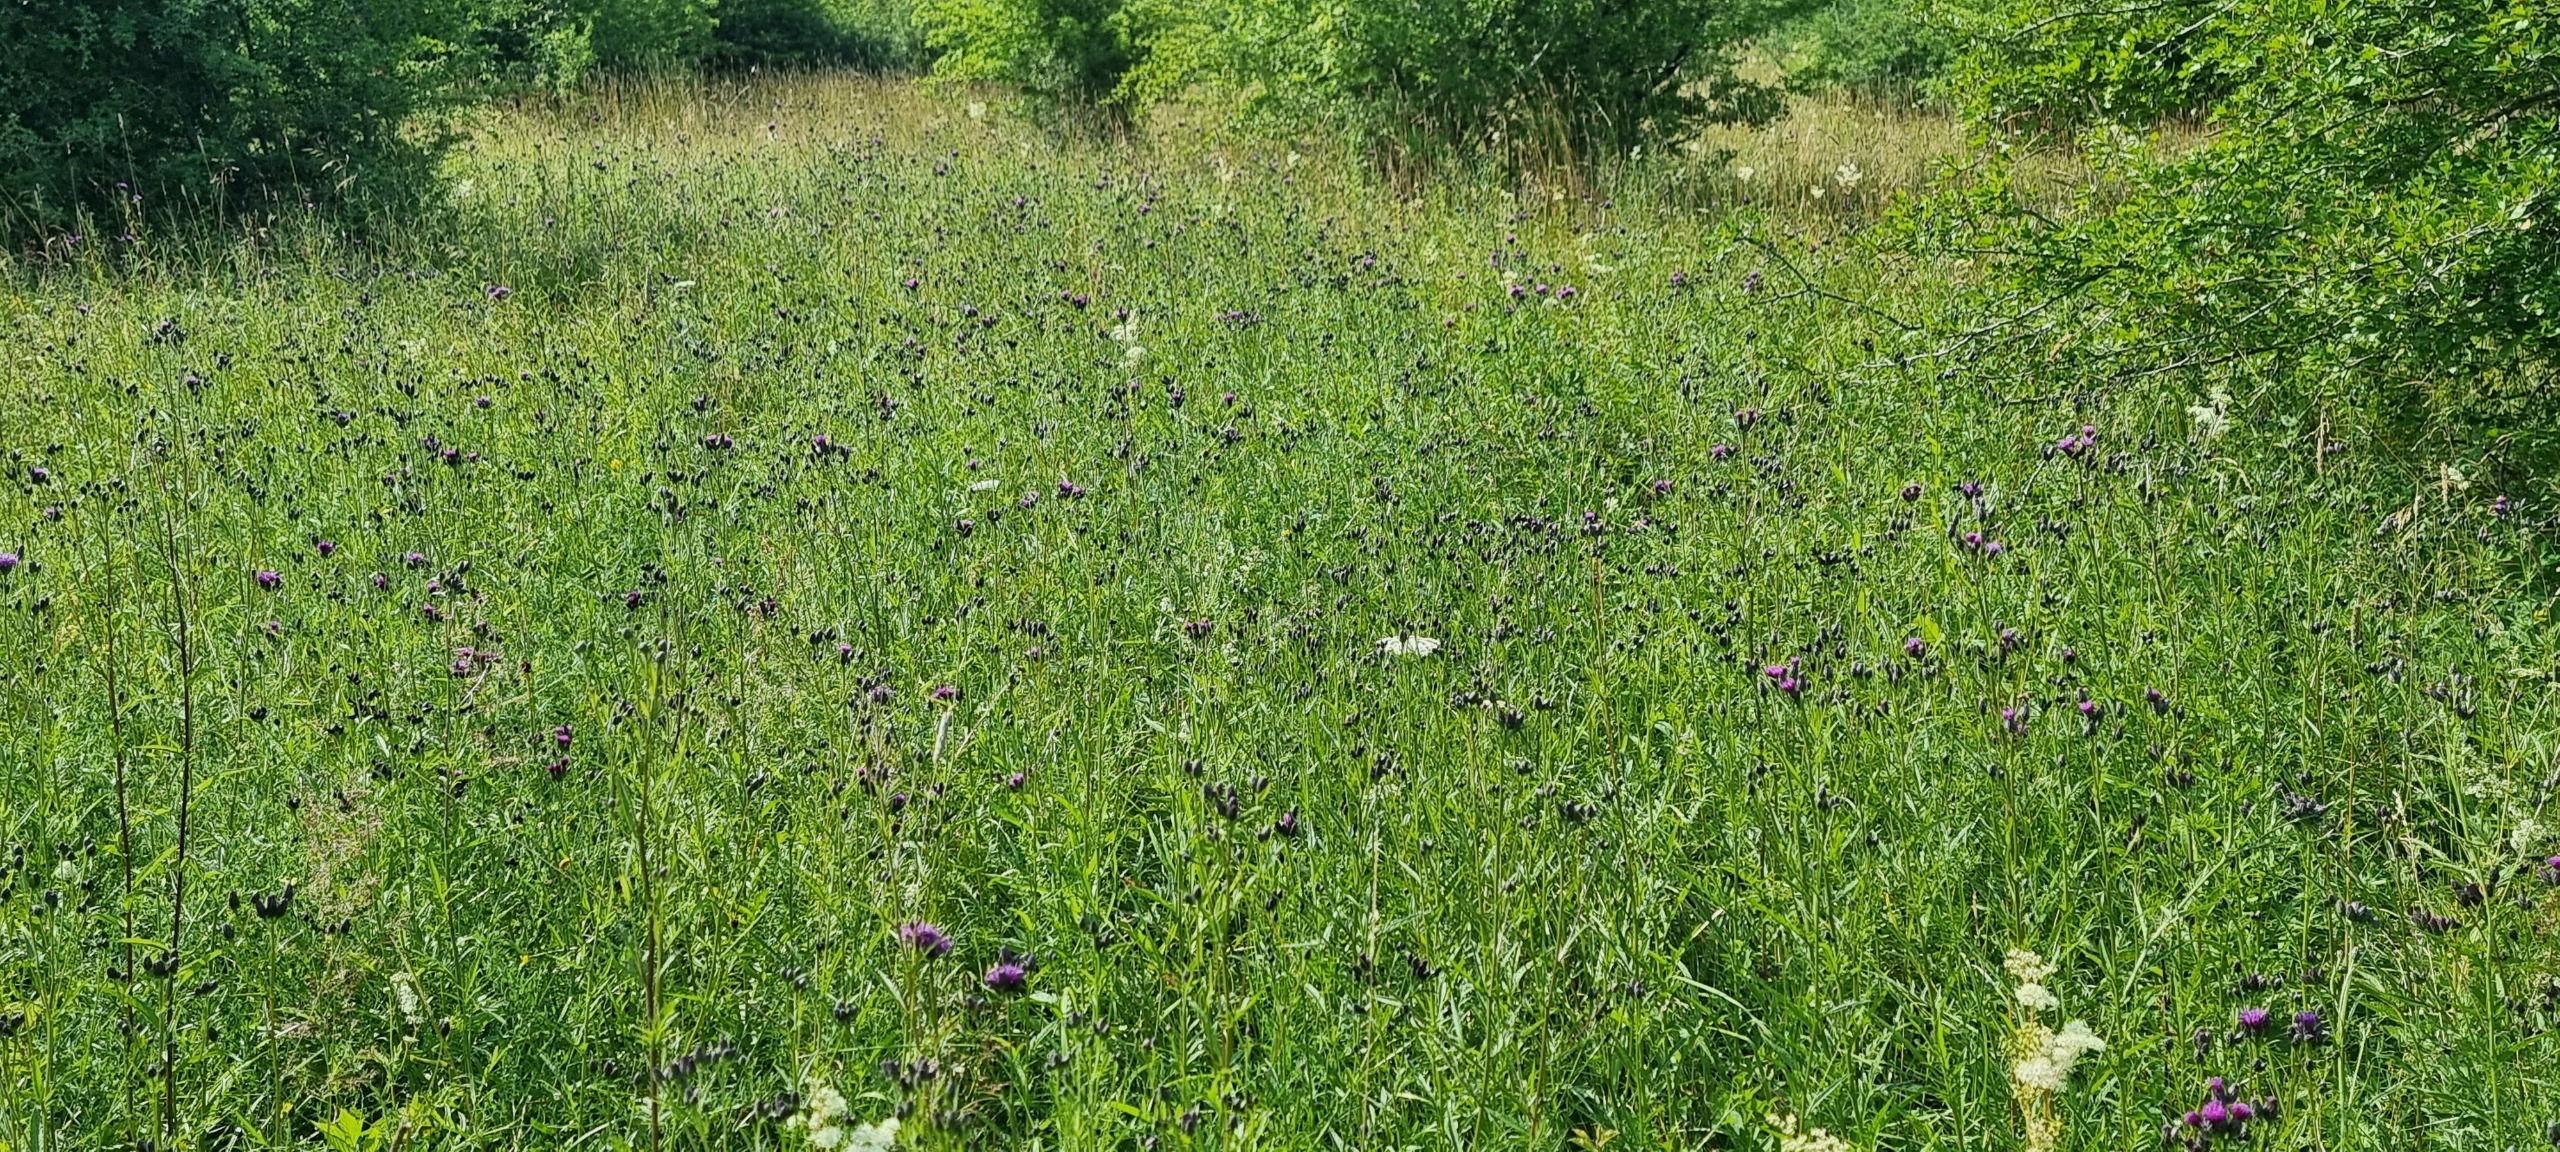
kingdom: Plantae
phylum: Tracheophyta
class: Magnoliopsida
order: Asterales
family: Asteraceae
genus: Serratula
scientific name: Serratula tinctoria
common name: Eng-skær
